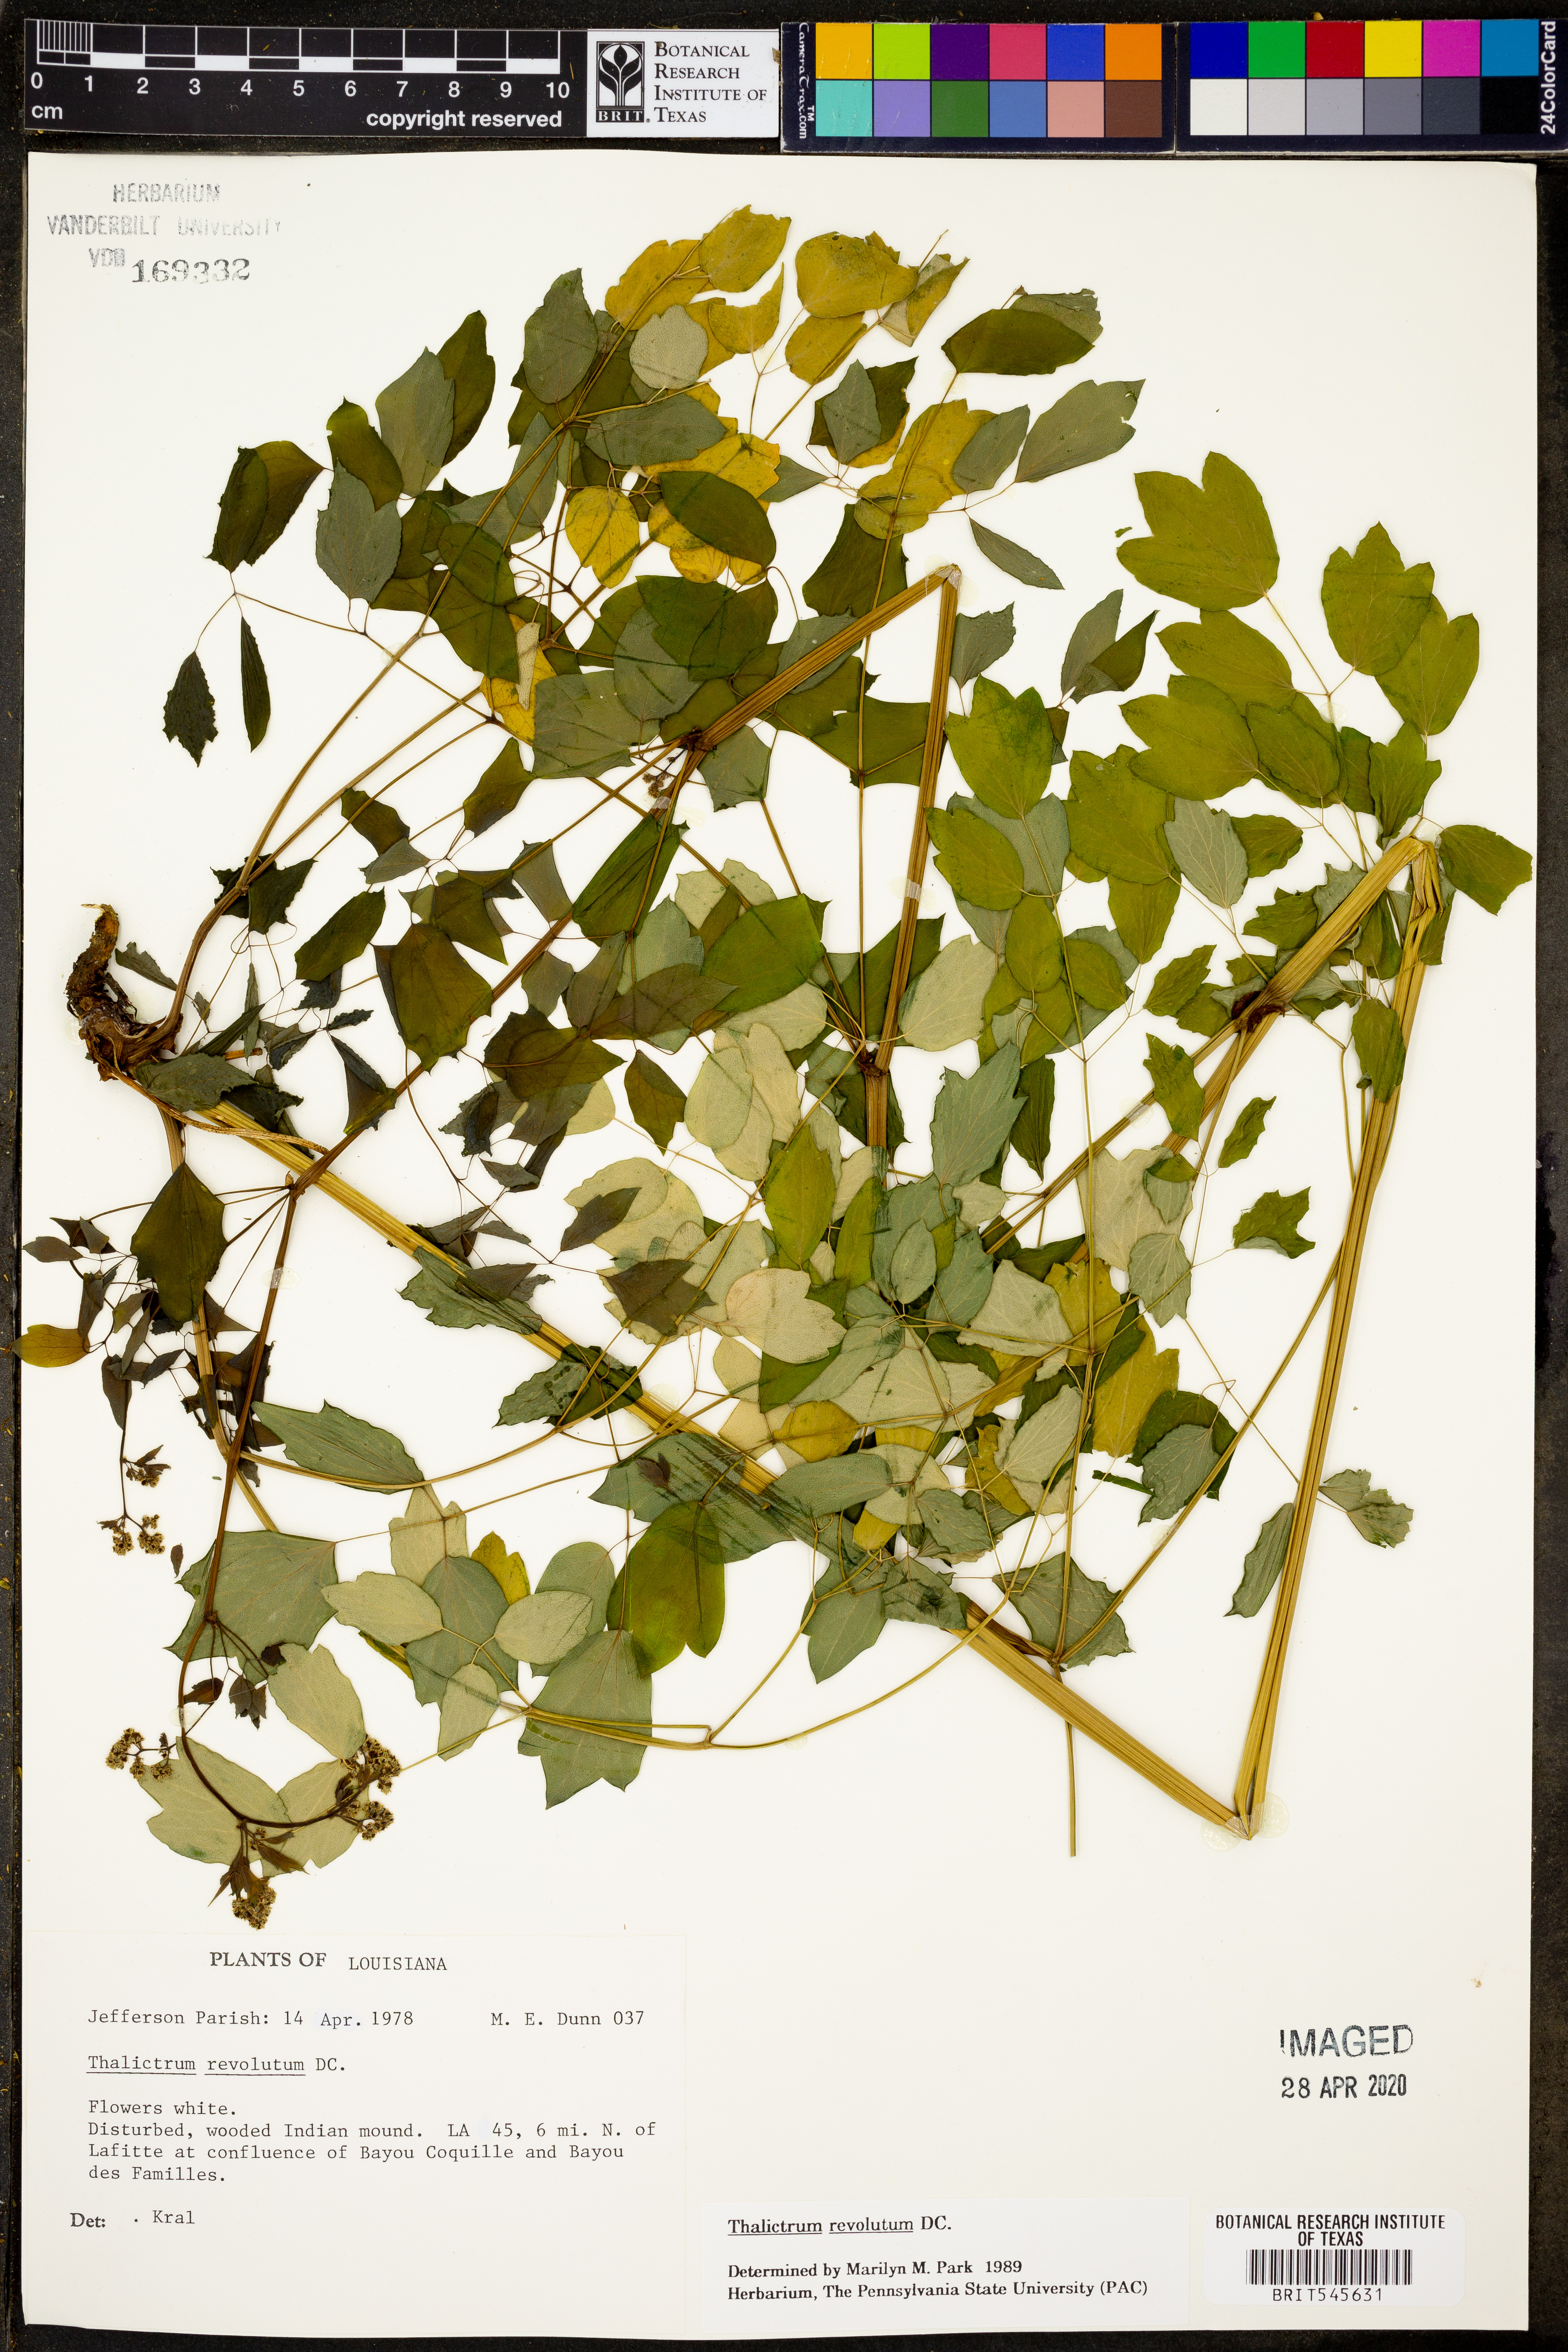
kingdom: Plantae
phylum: Tracheophyta
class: Magnoliopsida
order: Ranunculales
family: Ranunculaceae
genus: Thalictrum
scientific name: Thalictrum revolutum
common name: Waxy meadow-rue
